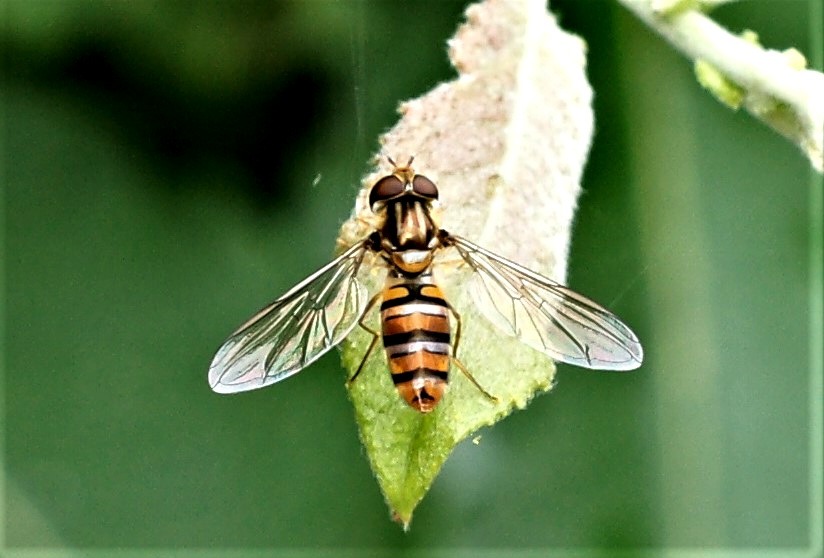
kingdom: Animalia
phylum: Arthropoda
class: Insecta
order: Diptera
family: Syrphidae
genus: Episyrphus
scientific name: Episyrphus balteatus
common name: Dobbeltbåndet svirreflue
